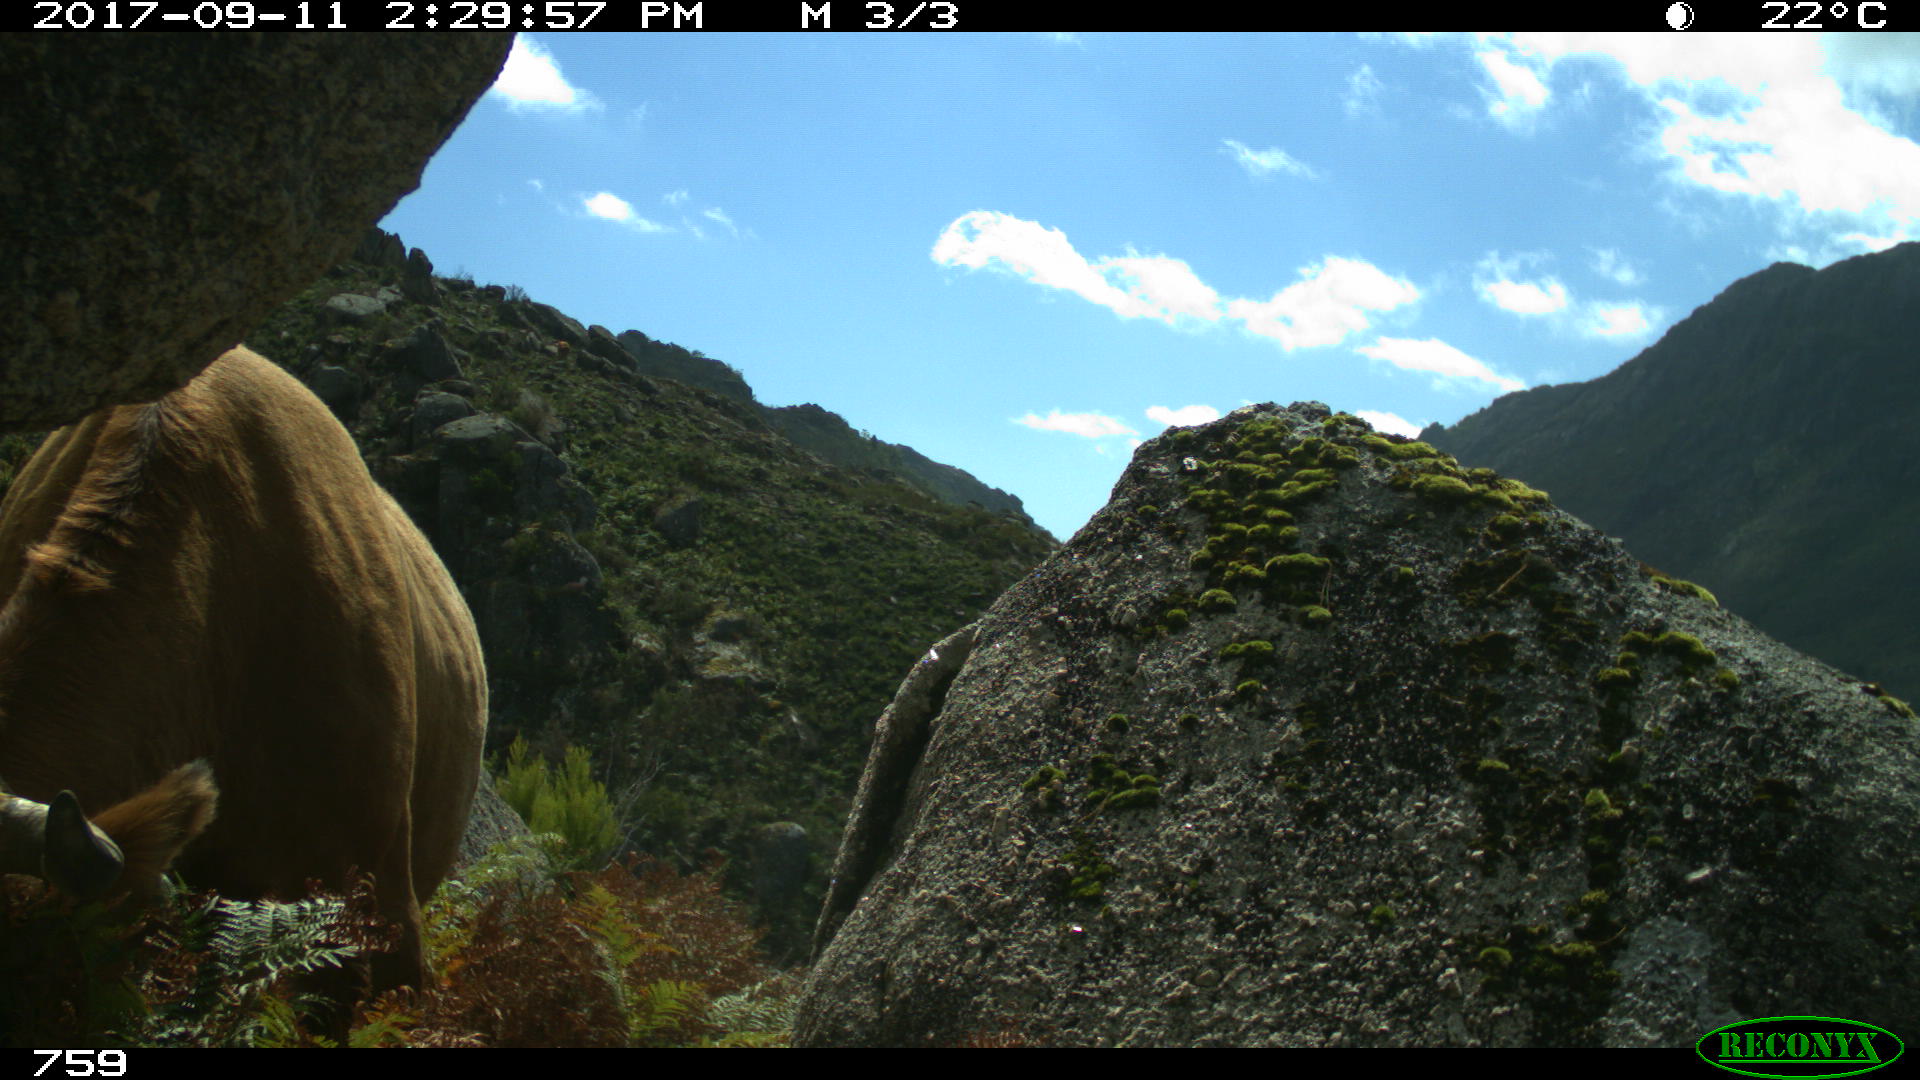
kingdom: Animalia
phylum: Chordata
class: Mammalia
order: Artiodactyla
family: Bovidae
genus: Bos
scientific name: Bos taurus
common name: Domesticated cattle
